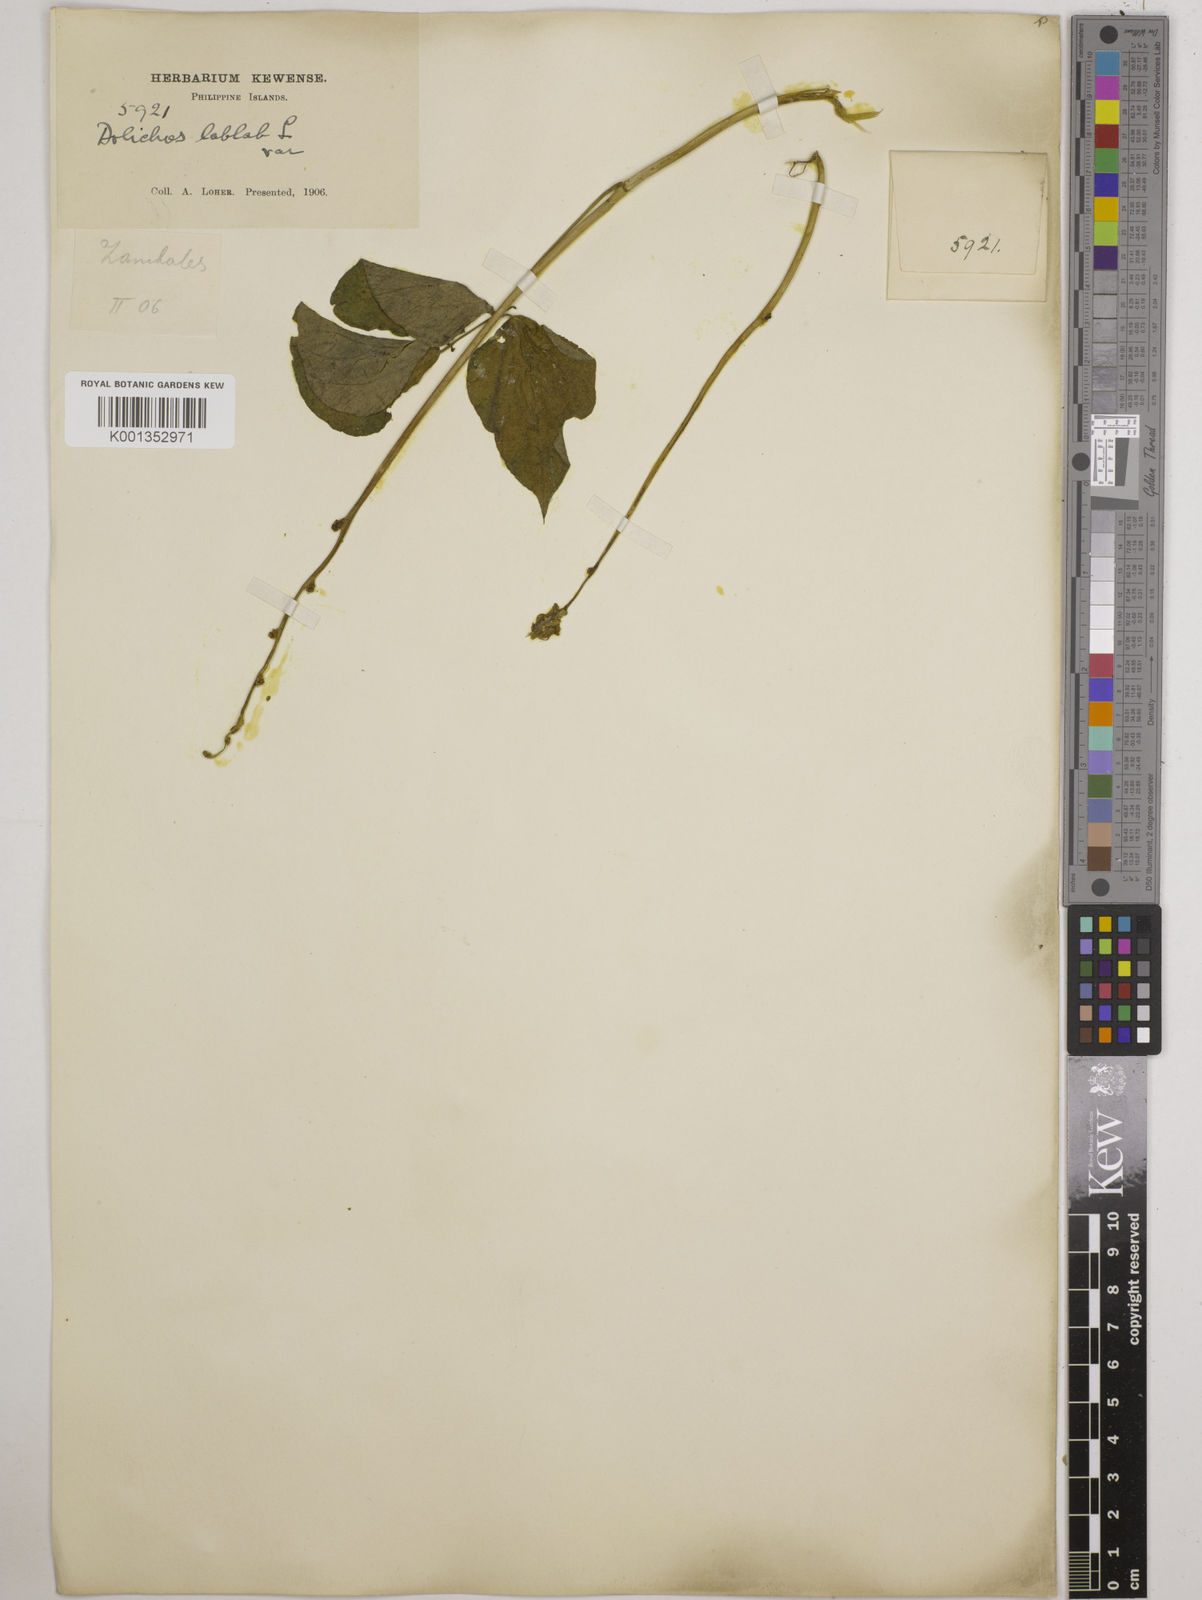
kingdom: Plantae
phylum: Tracheophyta
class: Magnoliopsida
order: Fabales
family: Fabaceae
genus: Lablab
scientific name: Lablab purpureus
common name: Lablab-bean
